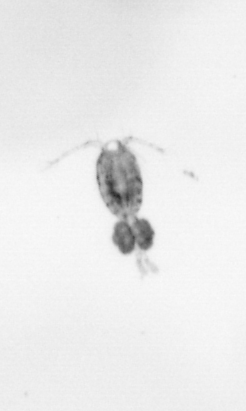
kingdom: Animalia
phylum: Arthropoda
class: Copepoda
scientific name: Copepoda
